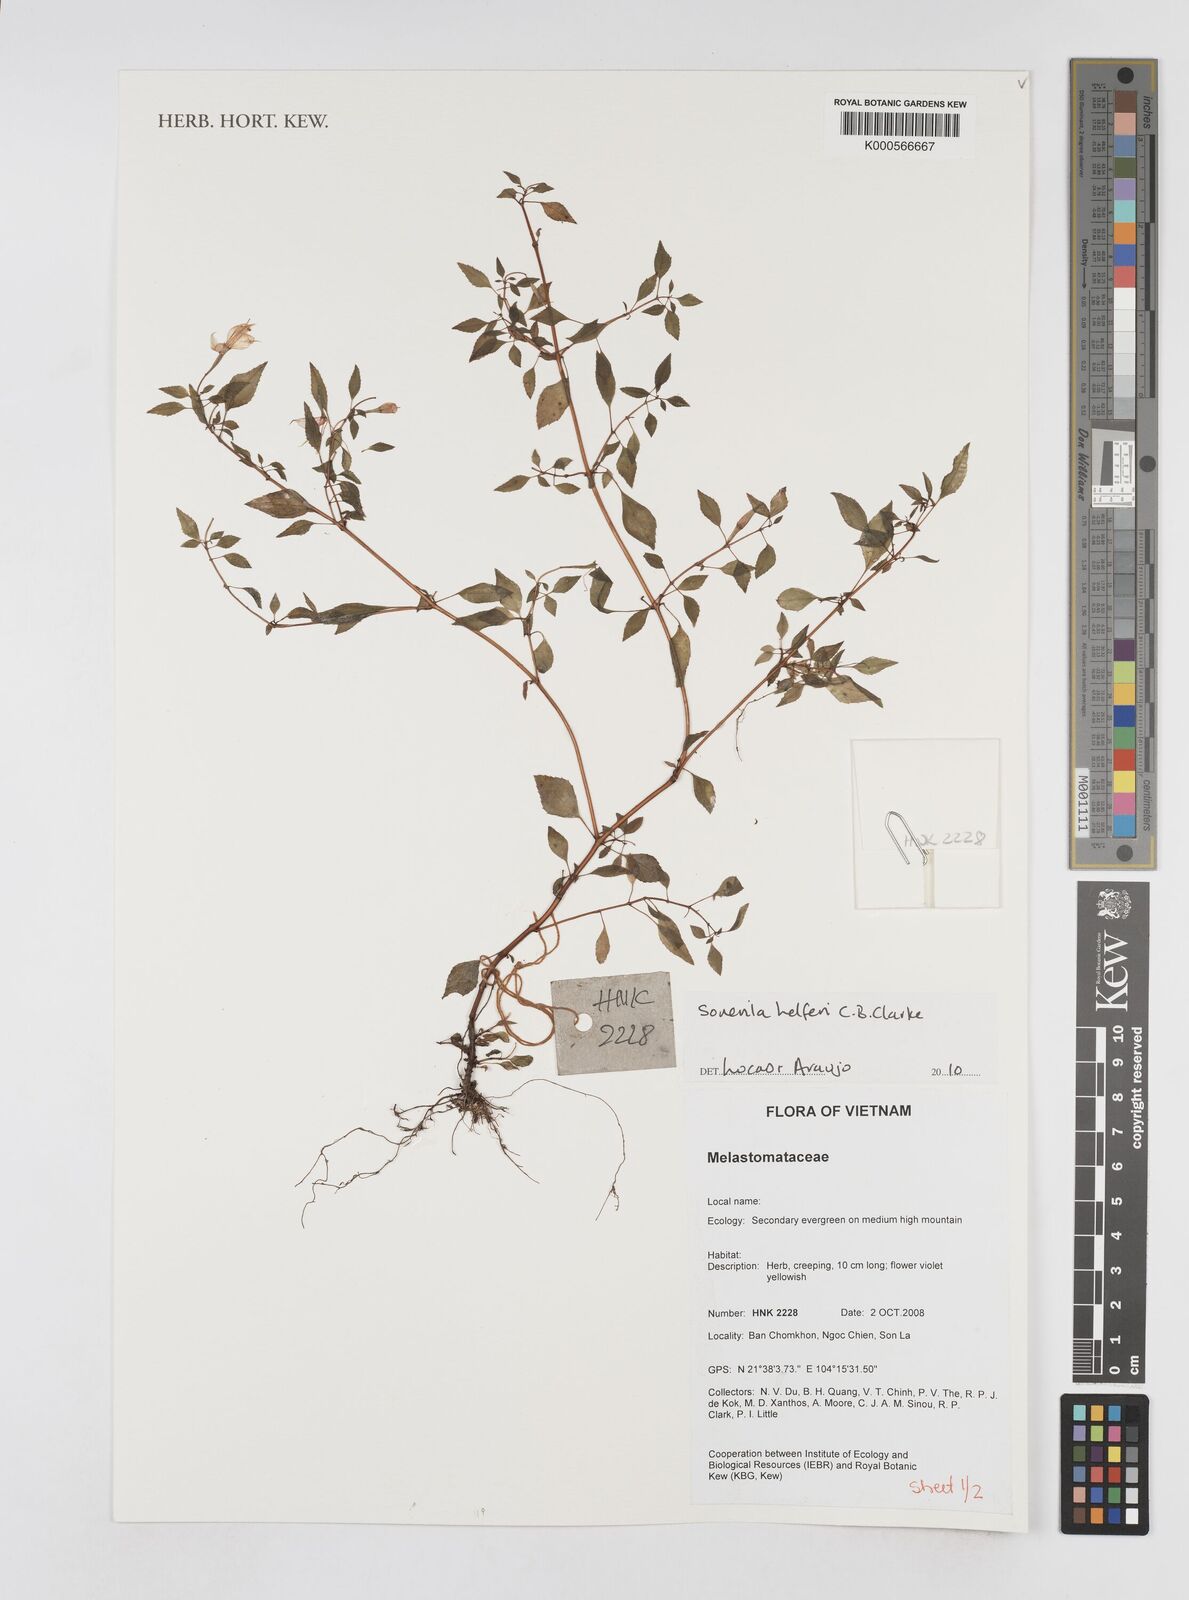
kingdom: Plantae
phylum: Tracheophyta
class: Magnoliopsida
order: Myrtales
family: Melastomataceae
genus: Sonerila
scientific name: Sonerila helferi
